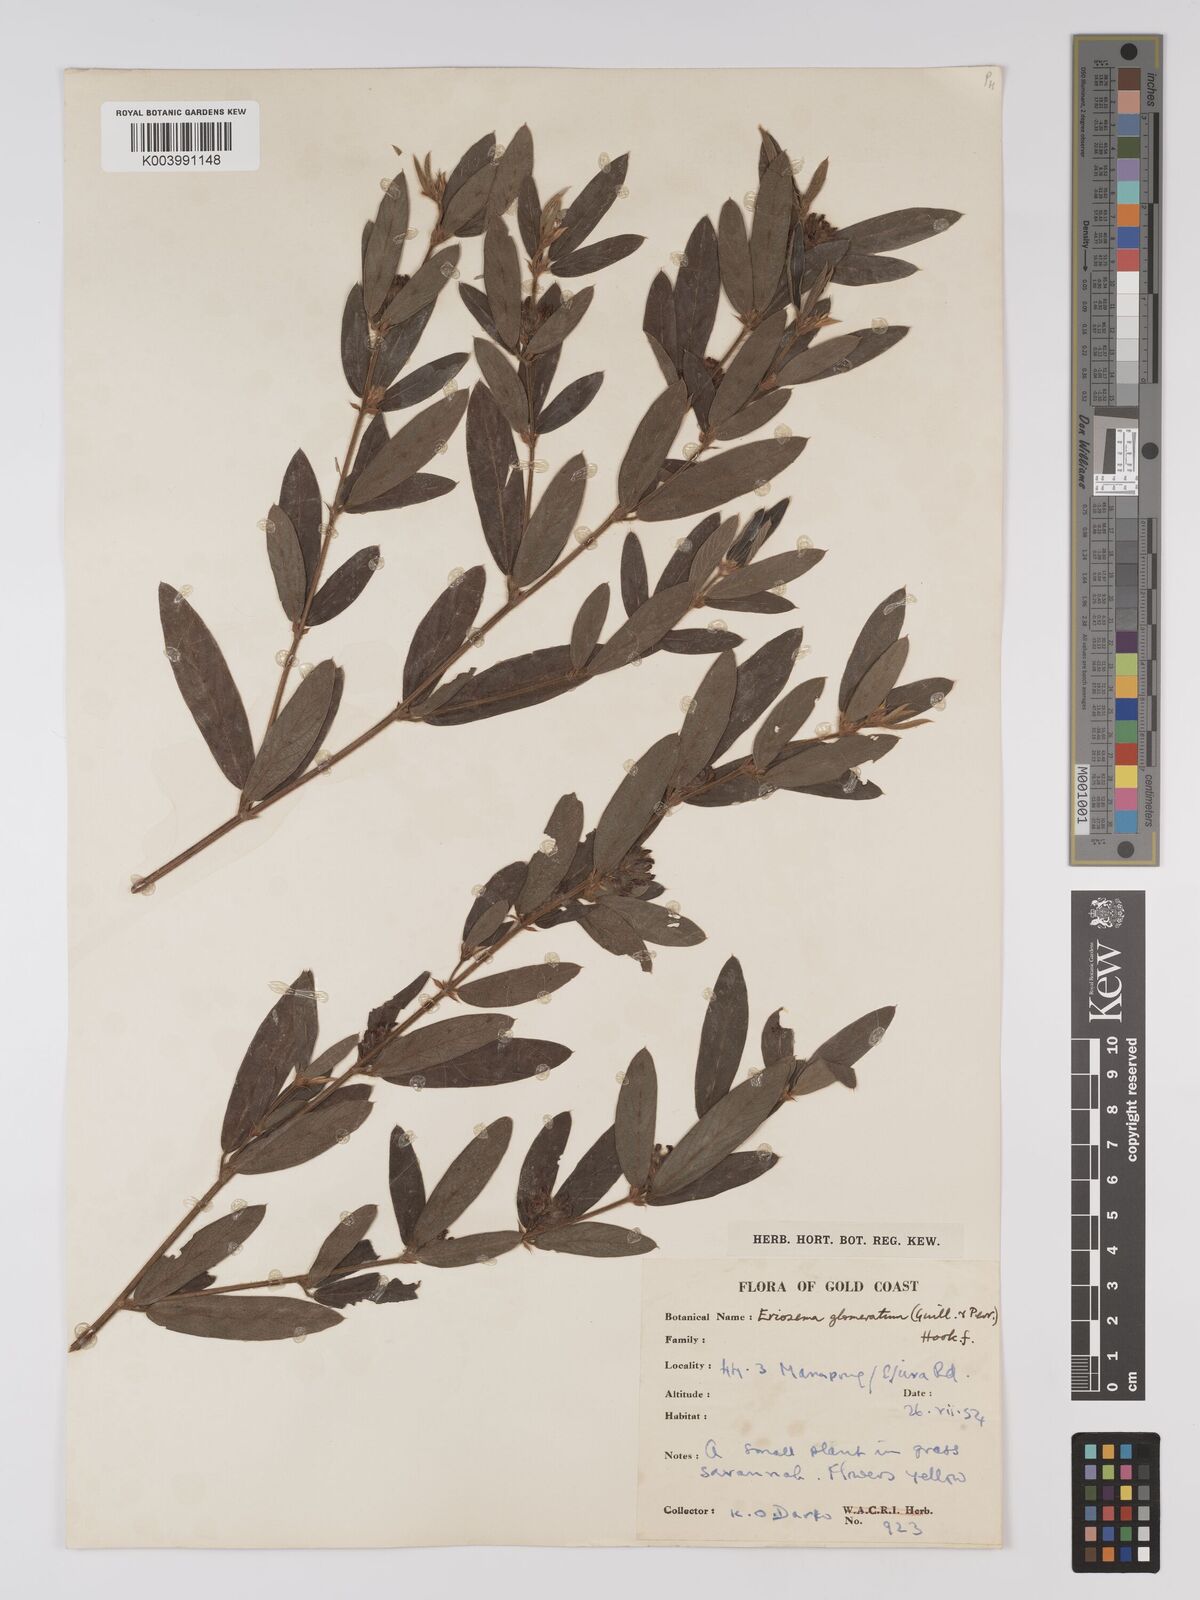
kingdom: Plantae
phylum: Tracheophyta
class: Magnoliopsida
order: Fabales
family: Fabaceae
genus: Eriosema
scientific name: Eriosema glomeratum
